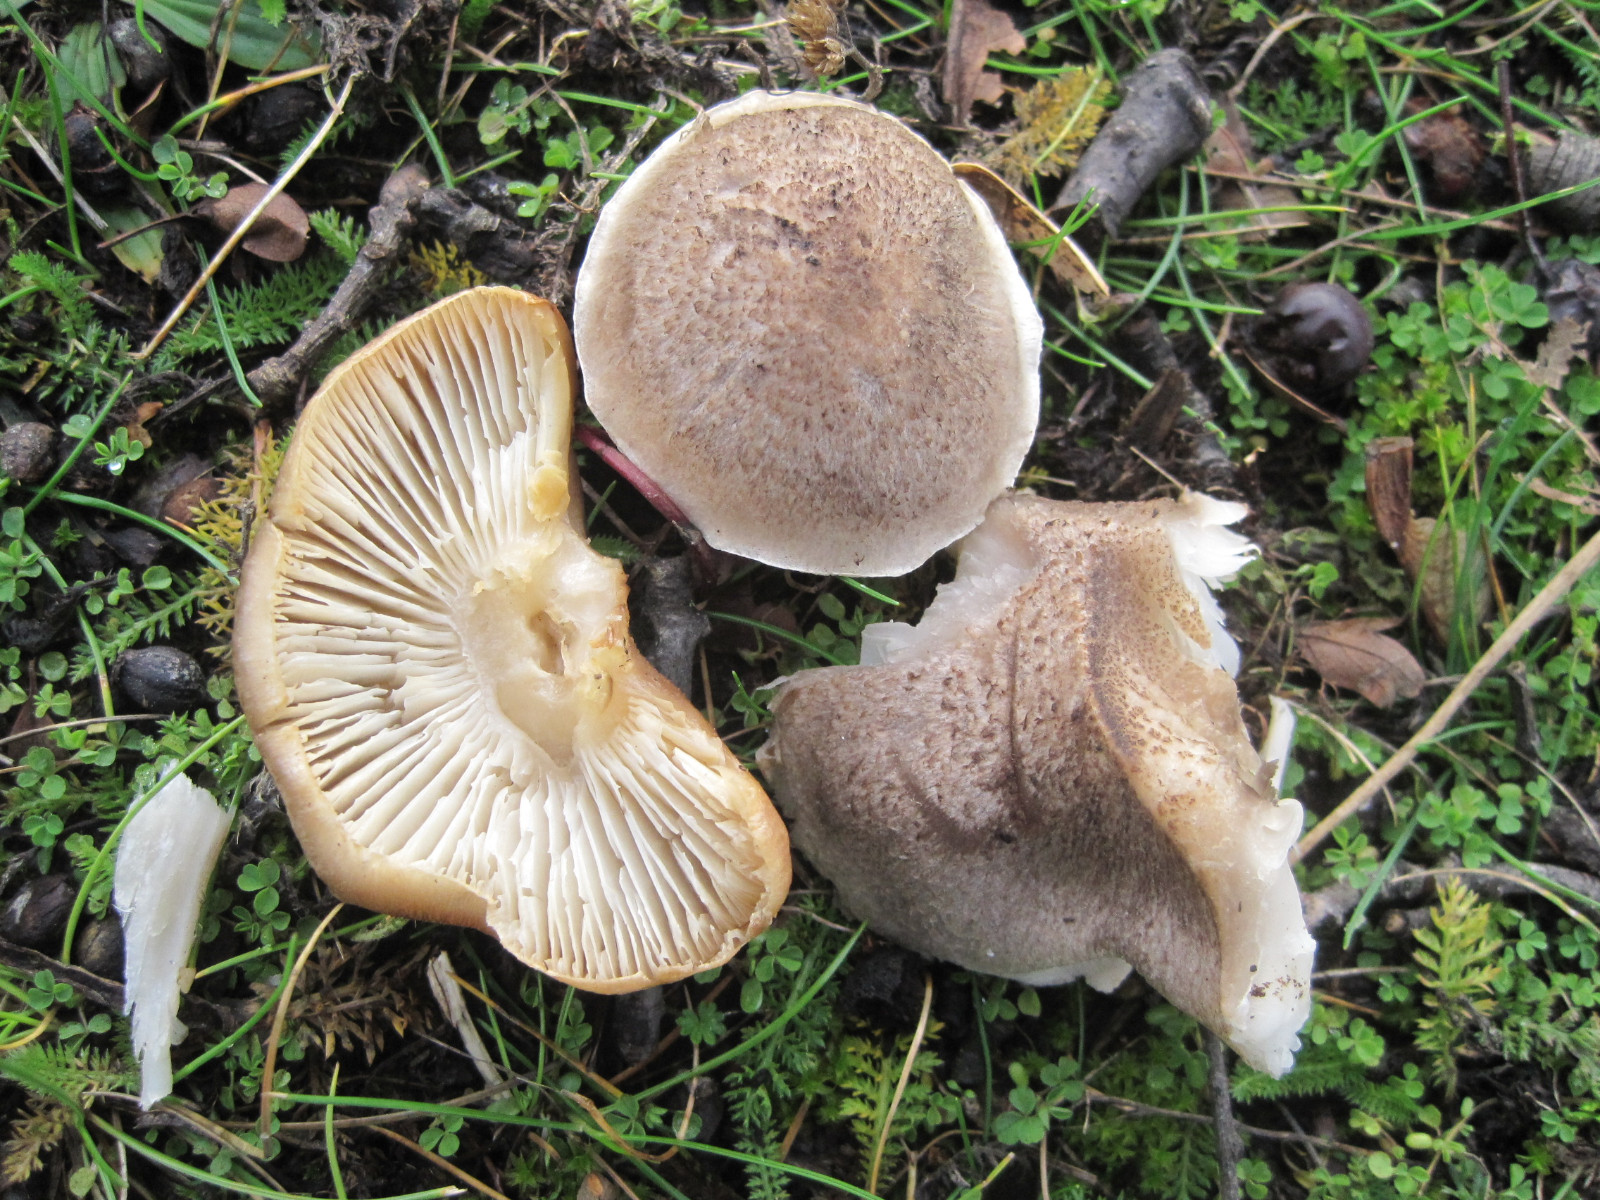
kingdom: Fungi
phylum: Basidiomycota
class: Agaricomycetes
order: Agaricales
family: Tricholomataceae
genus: Tricholoma
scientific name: Tricholoma scalpturatum
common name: gulplettet ridderhat
